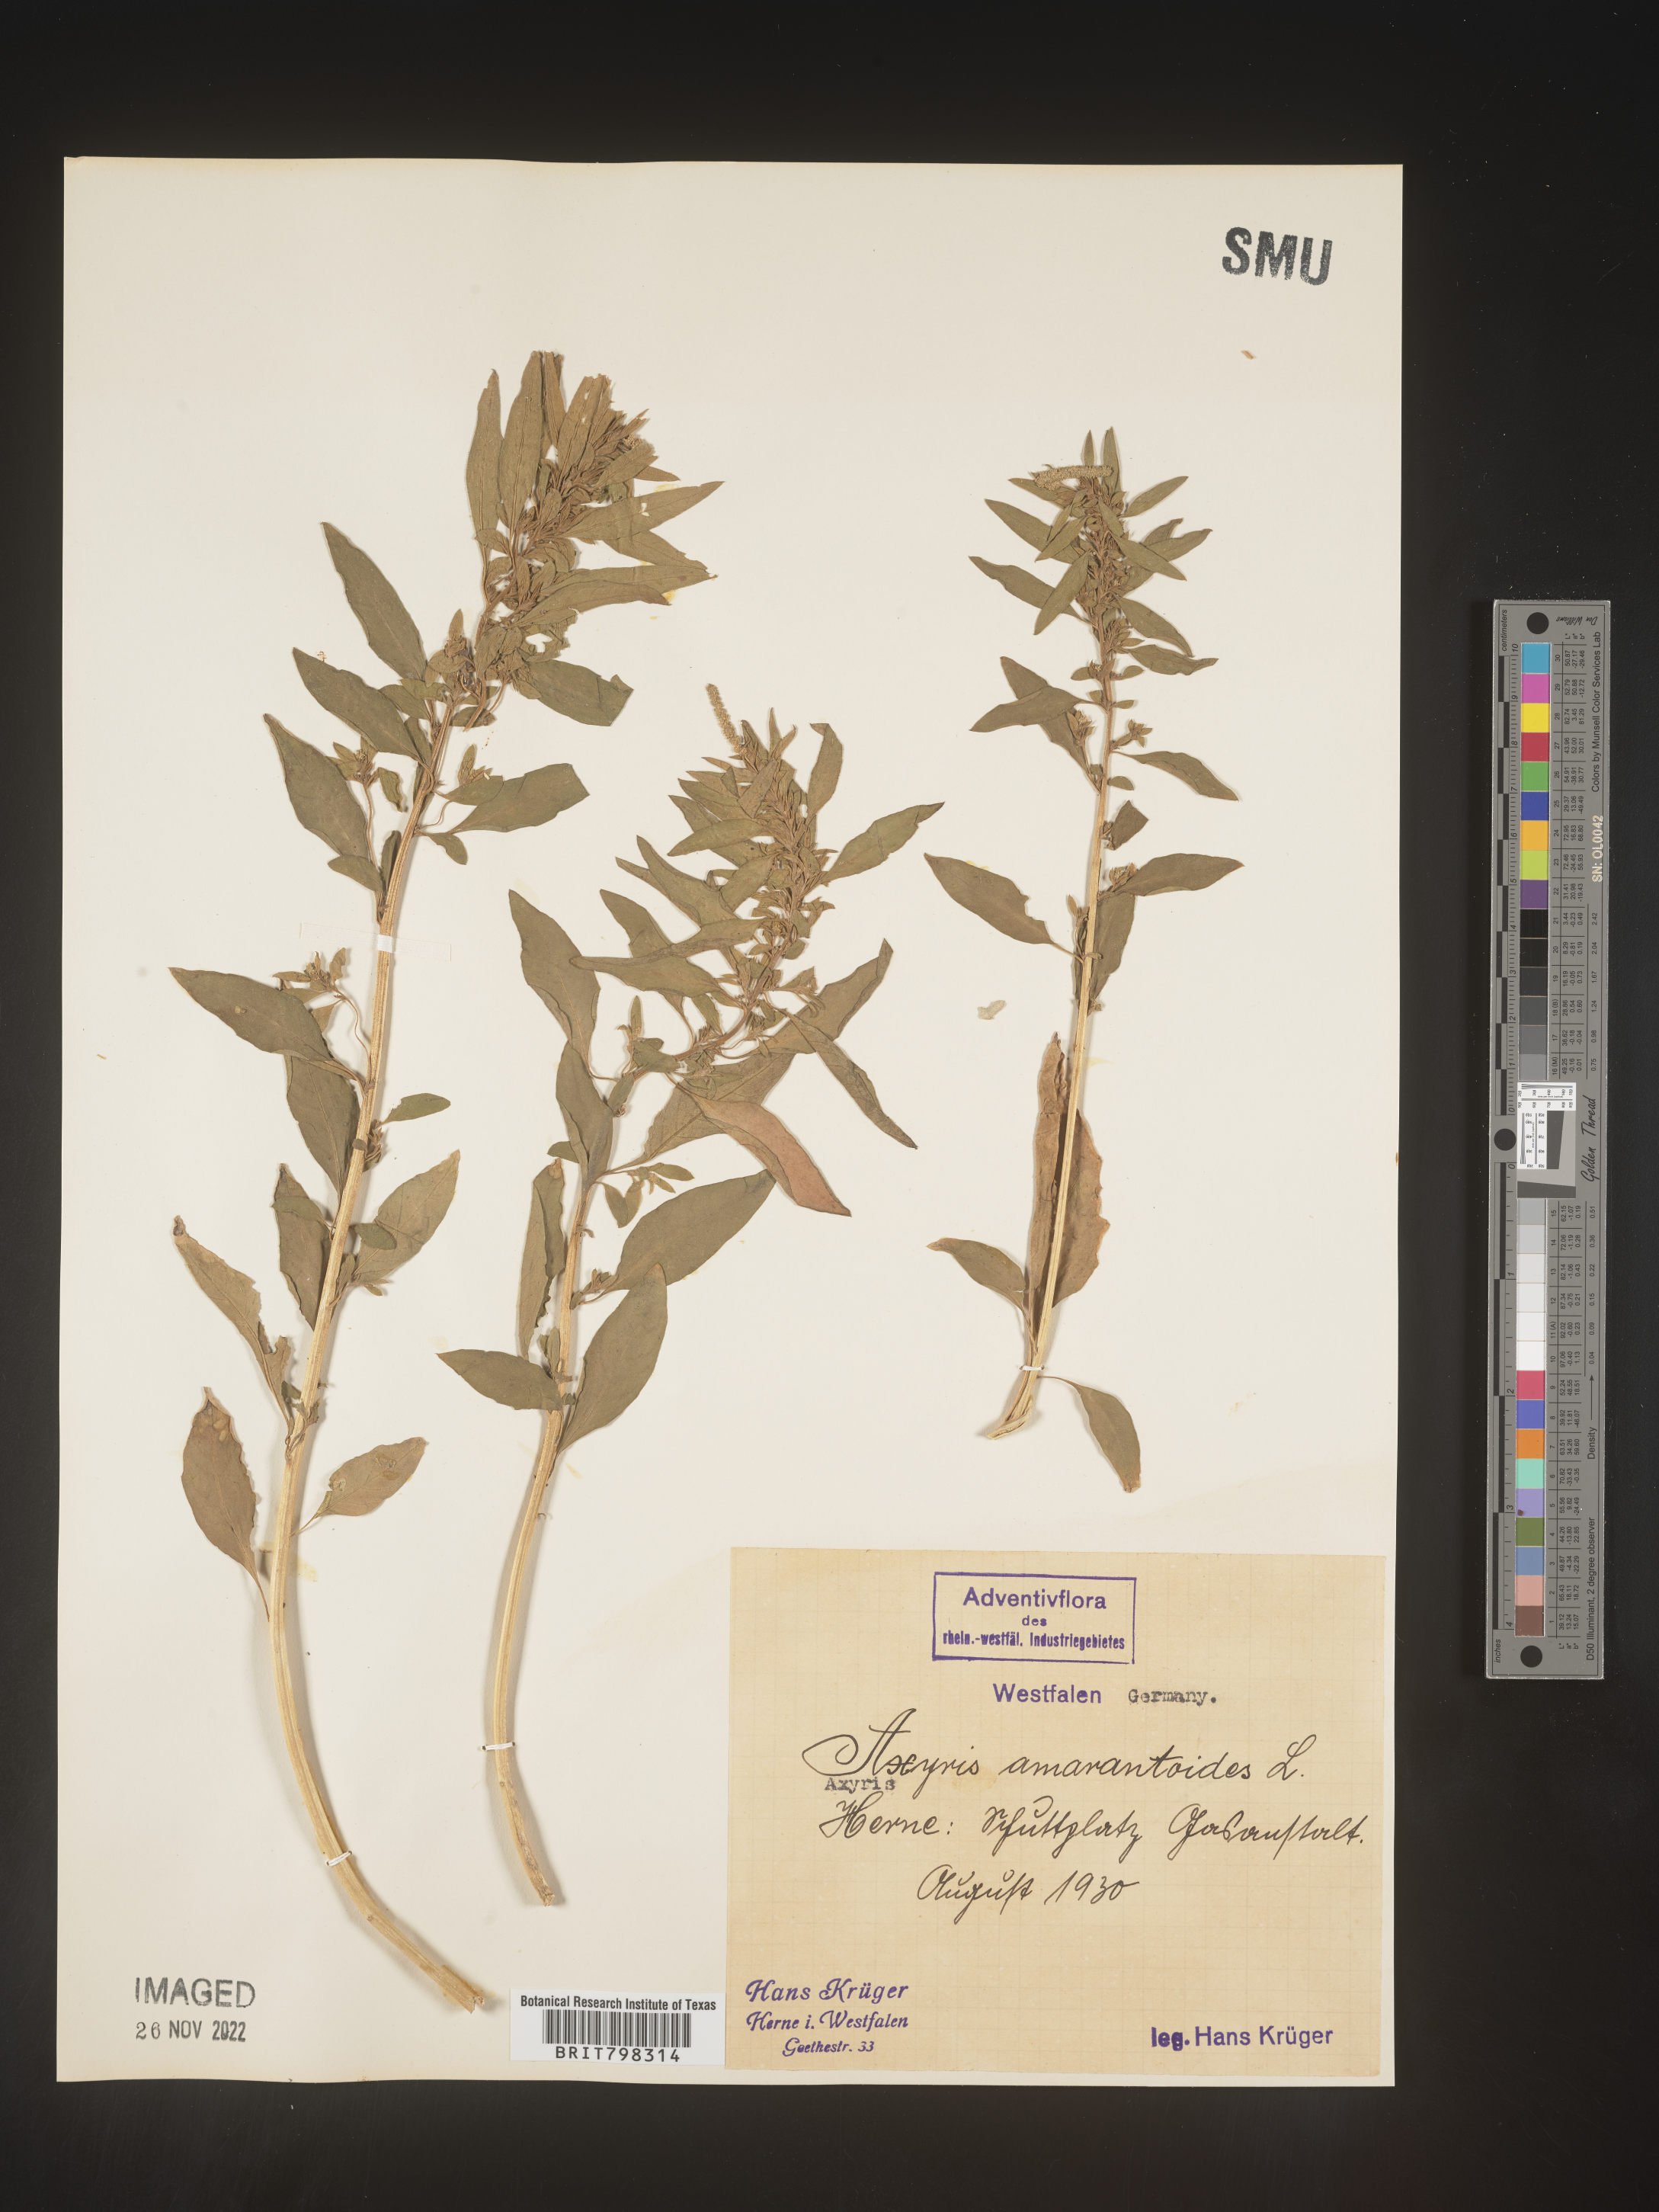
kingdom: Plantae
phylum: Tracheophyta
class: Magnoliopsida
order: Caryophyllales
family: Amaranthaceae
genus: Axyris
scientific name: Axyris
